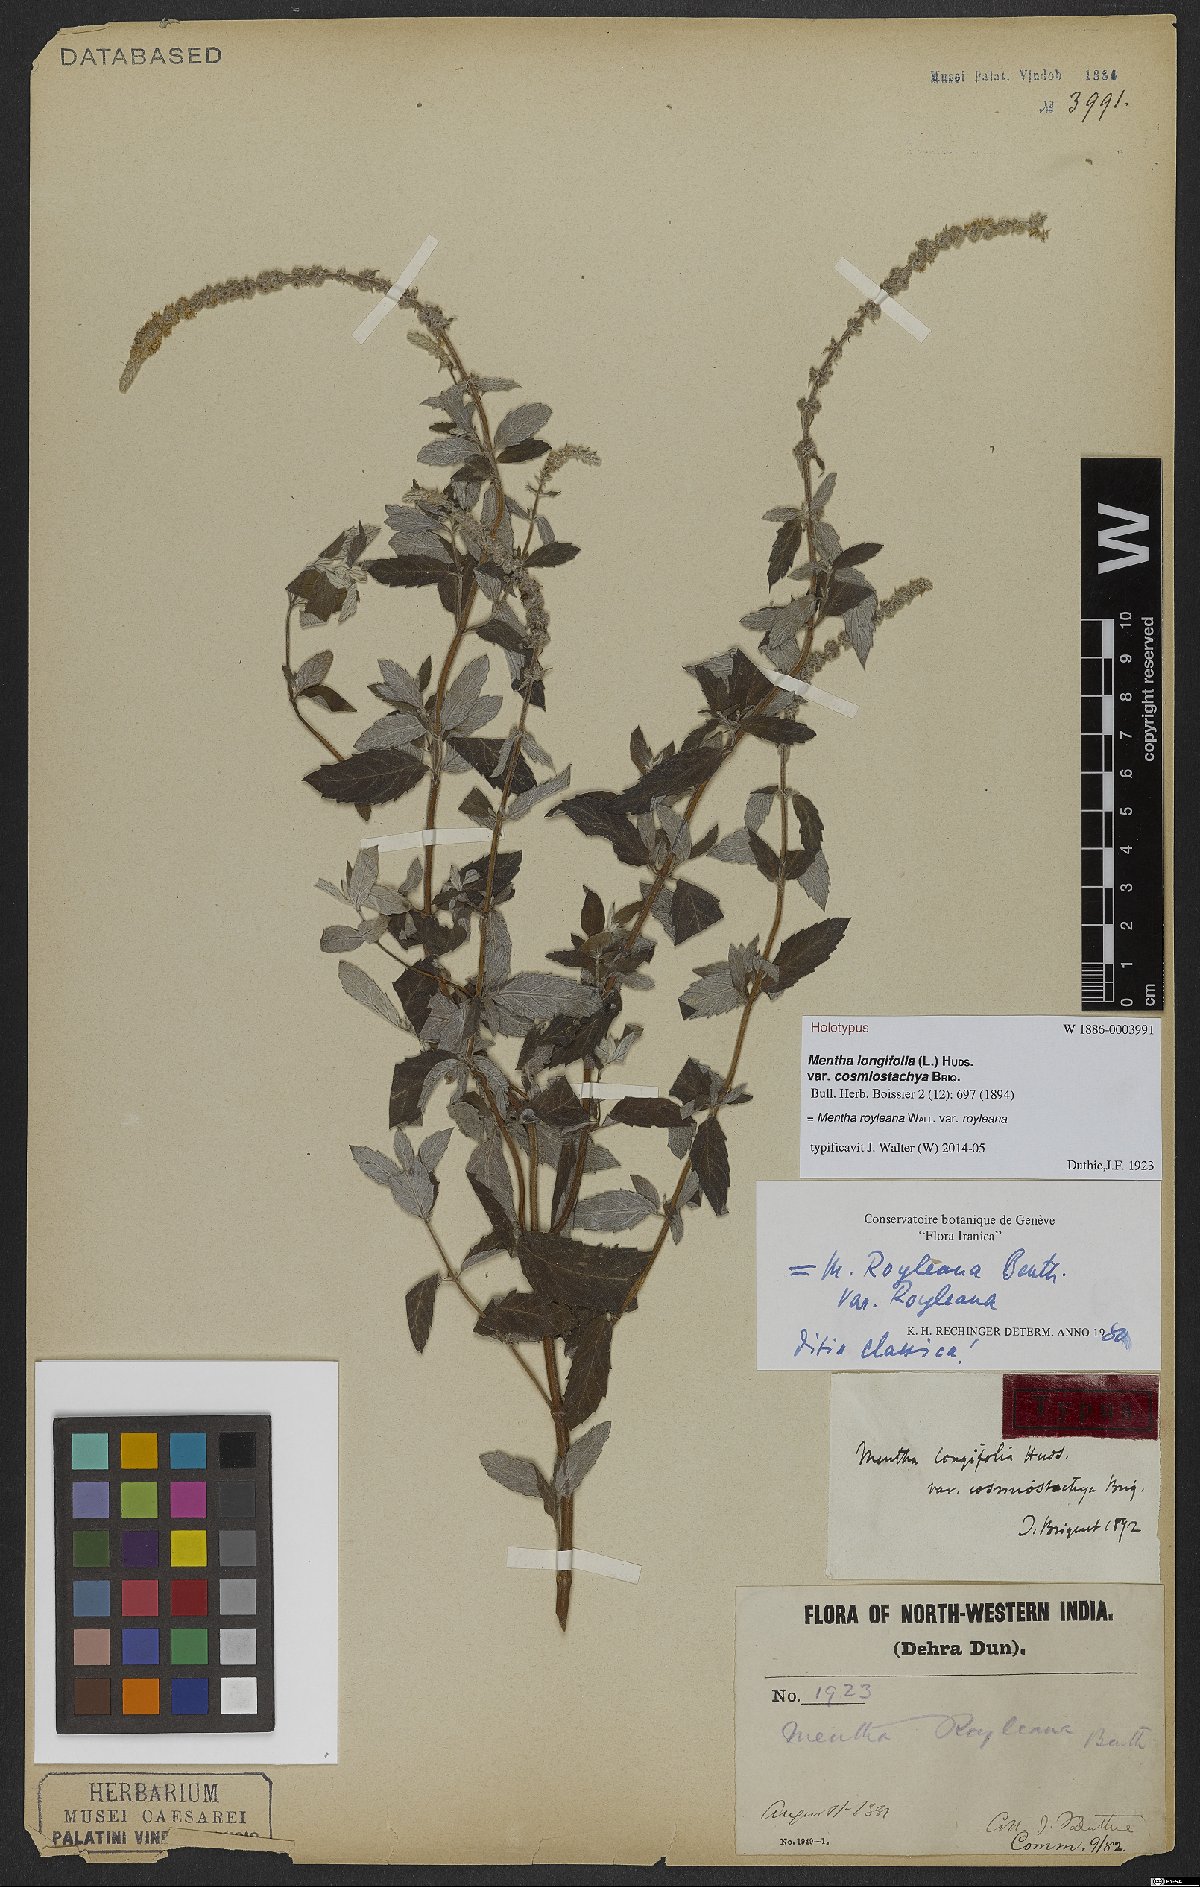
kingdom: Plantae
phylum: Tracheophyta
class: Magnoliopsida
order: Lamiales
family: Lamiaceae
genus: Mentha
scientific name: Mentha royleana
